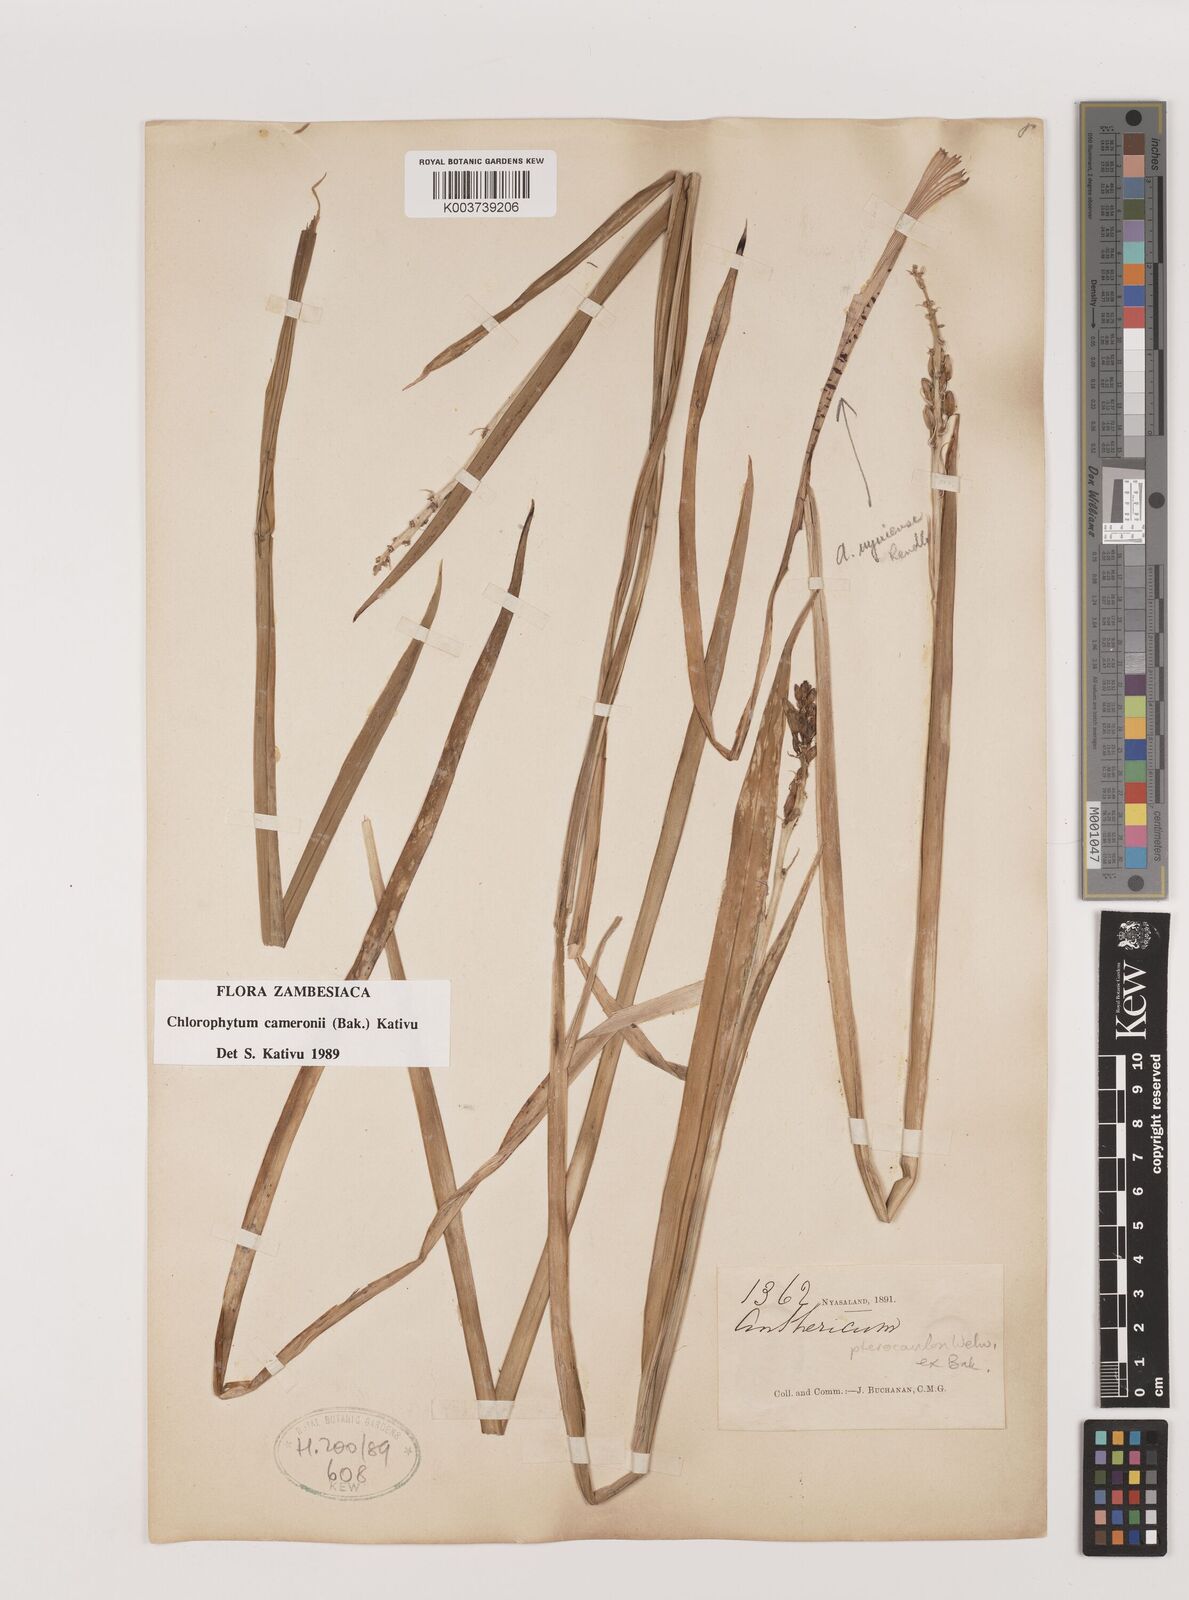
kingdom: Plantae
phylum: Tracheophyta
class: Liliopsida
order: Asparagales
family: Asparagaceae
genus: Chlorophytum
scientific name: Chlorophytum cameronii
